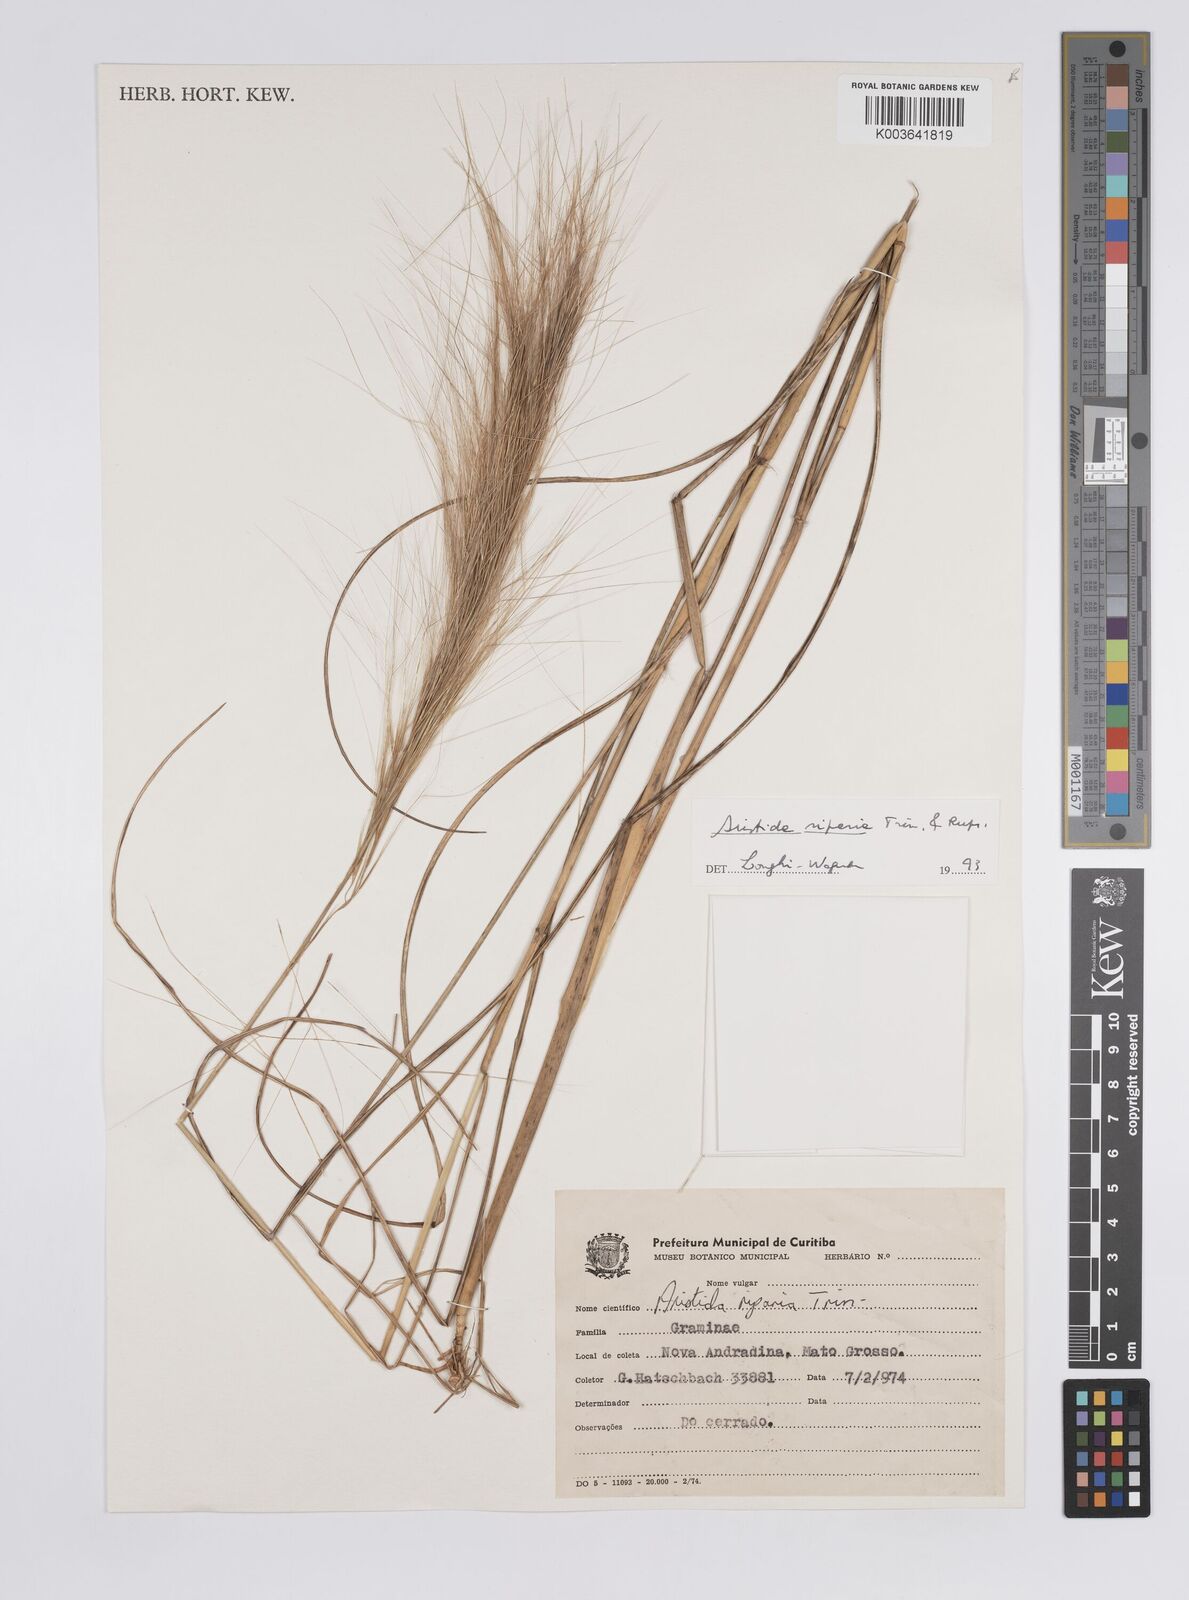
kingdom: Plantae
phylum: Tracheophyta
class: Liliopsida
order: Poales
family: Poaceae
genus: Aristida
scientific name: Aristida riparia
